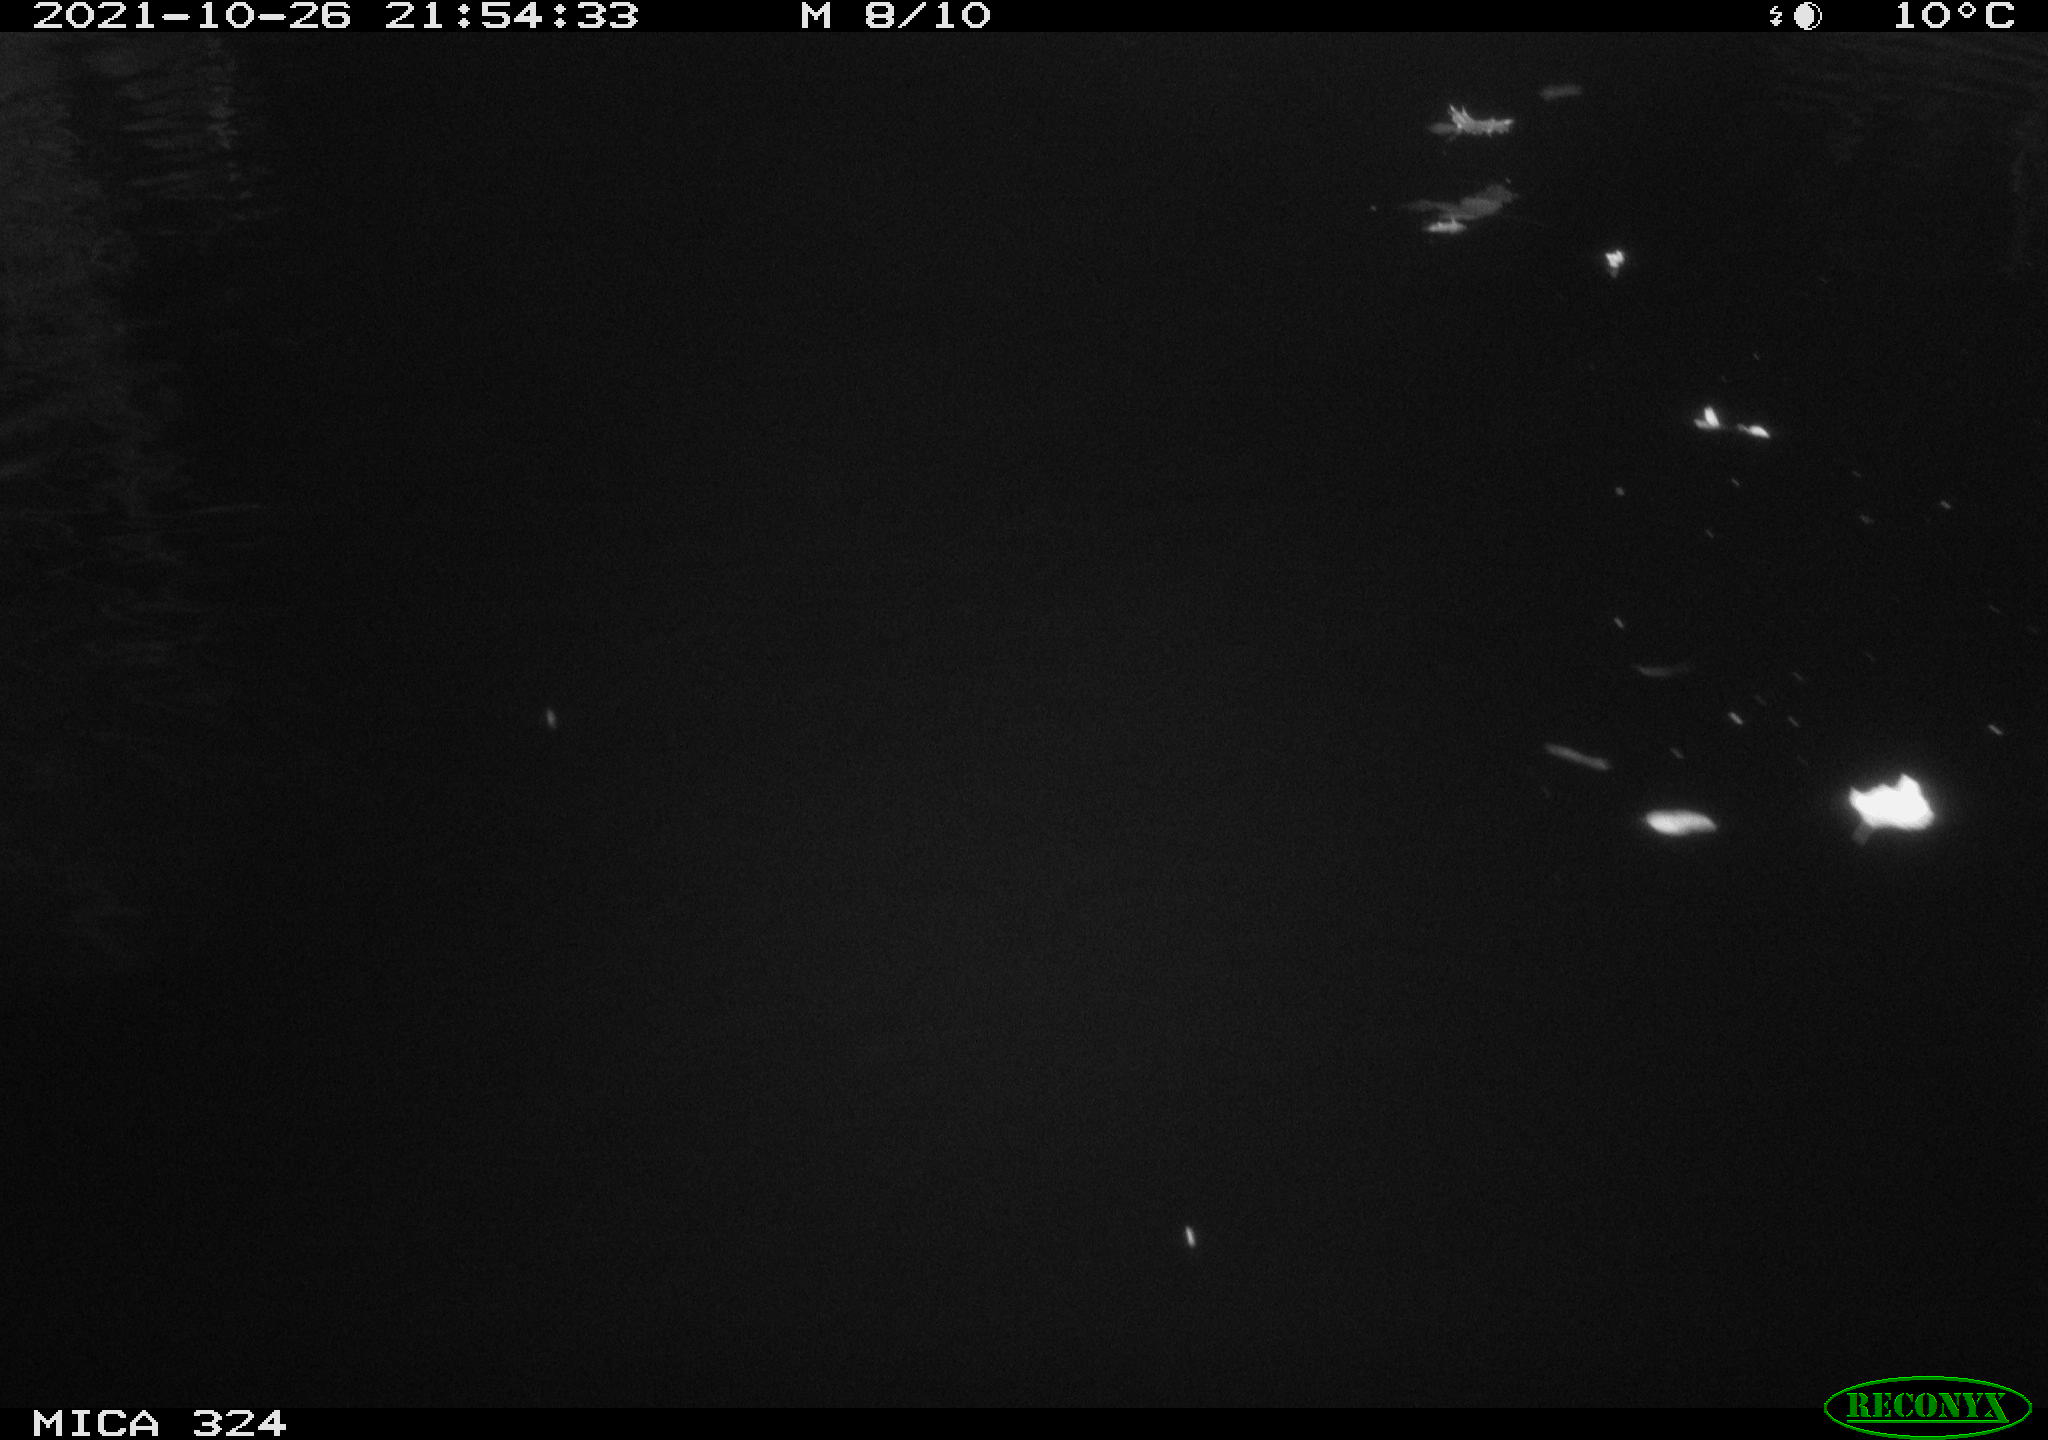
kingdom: Animalia
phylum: Chordata
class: Mammalia
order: Rodentia
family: Cricetidae
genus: Ondatra
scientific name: Ondatra zibethicus
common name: Muskrat
